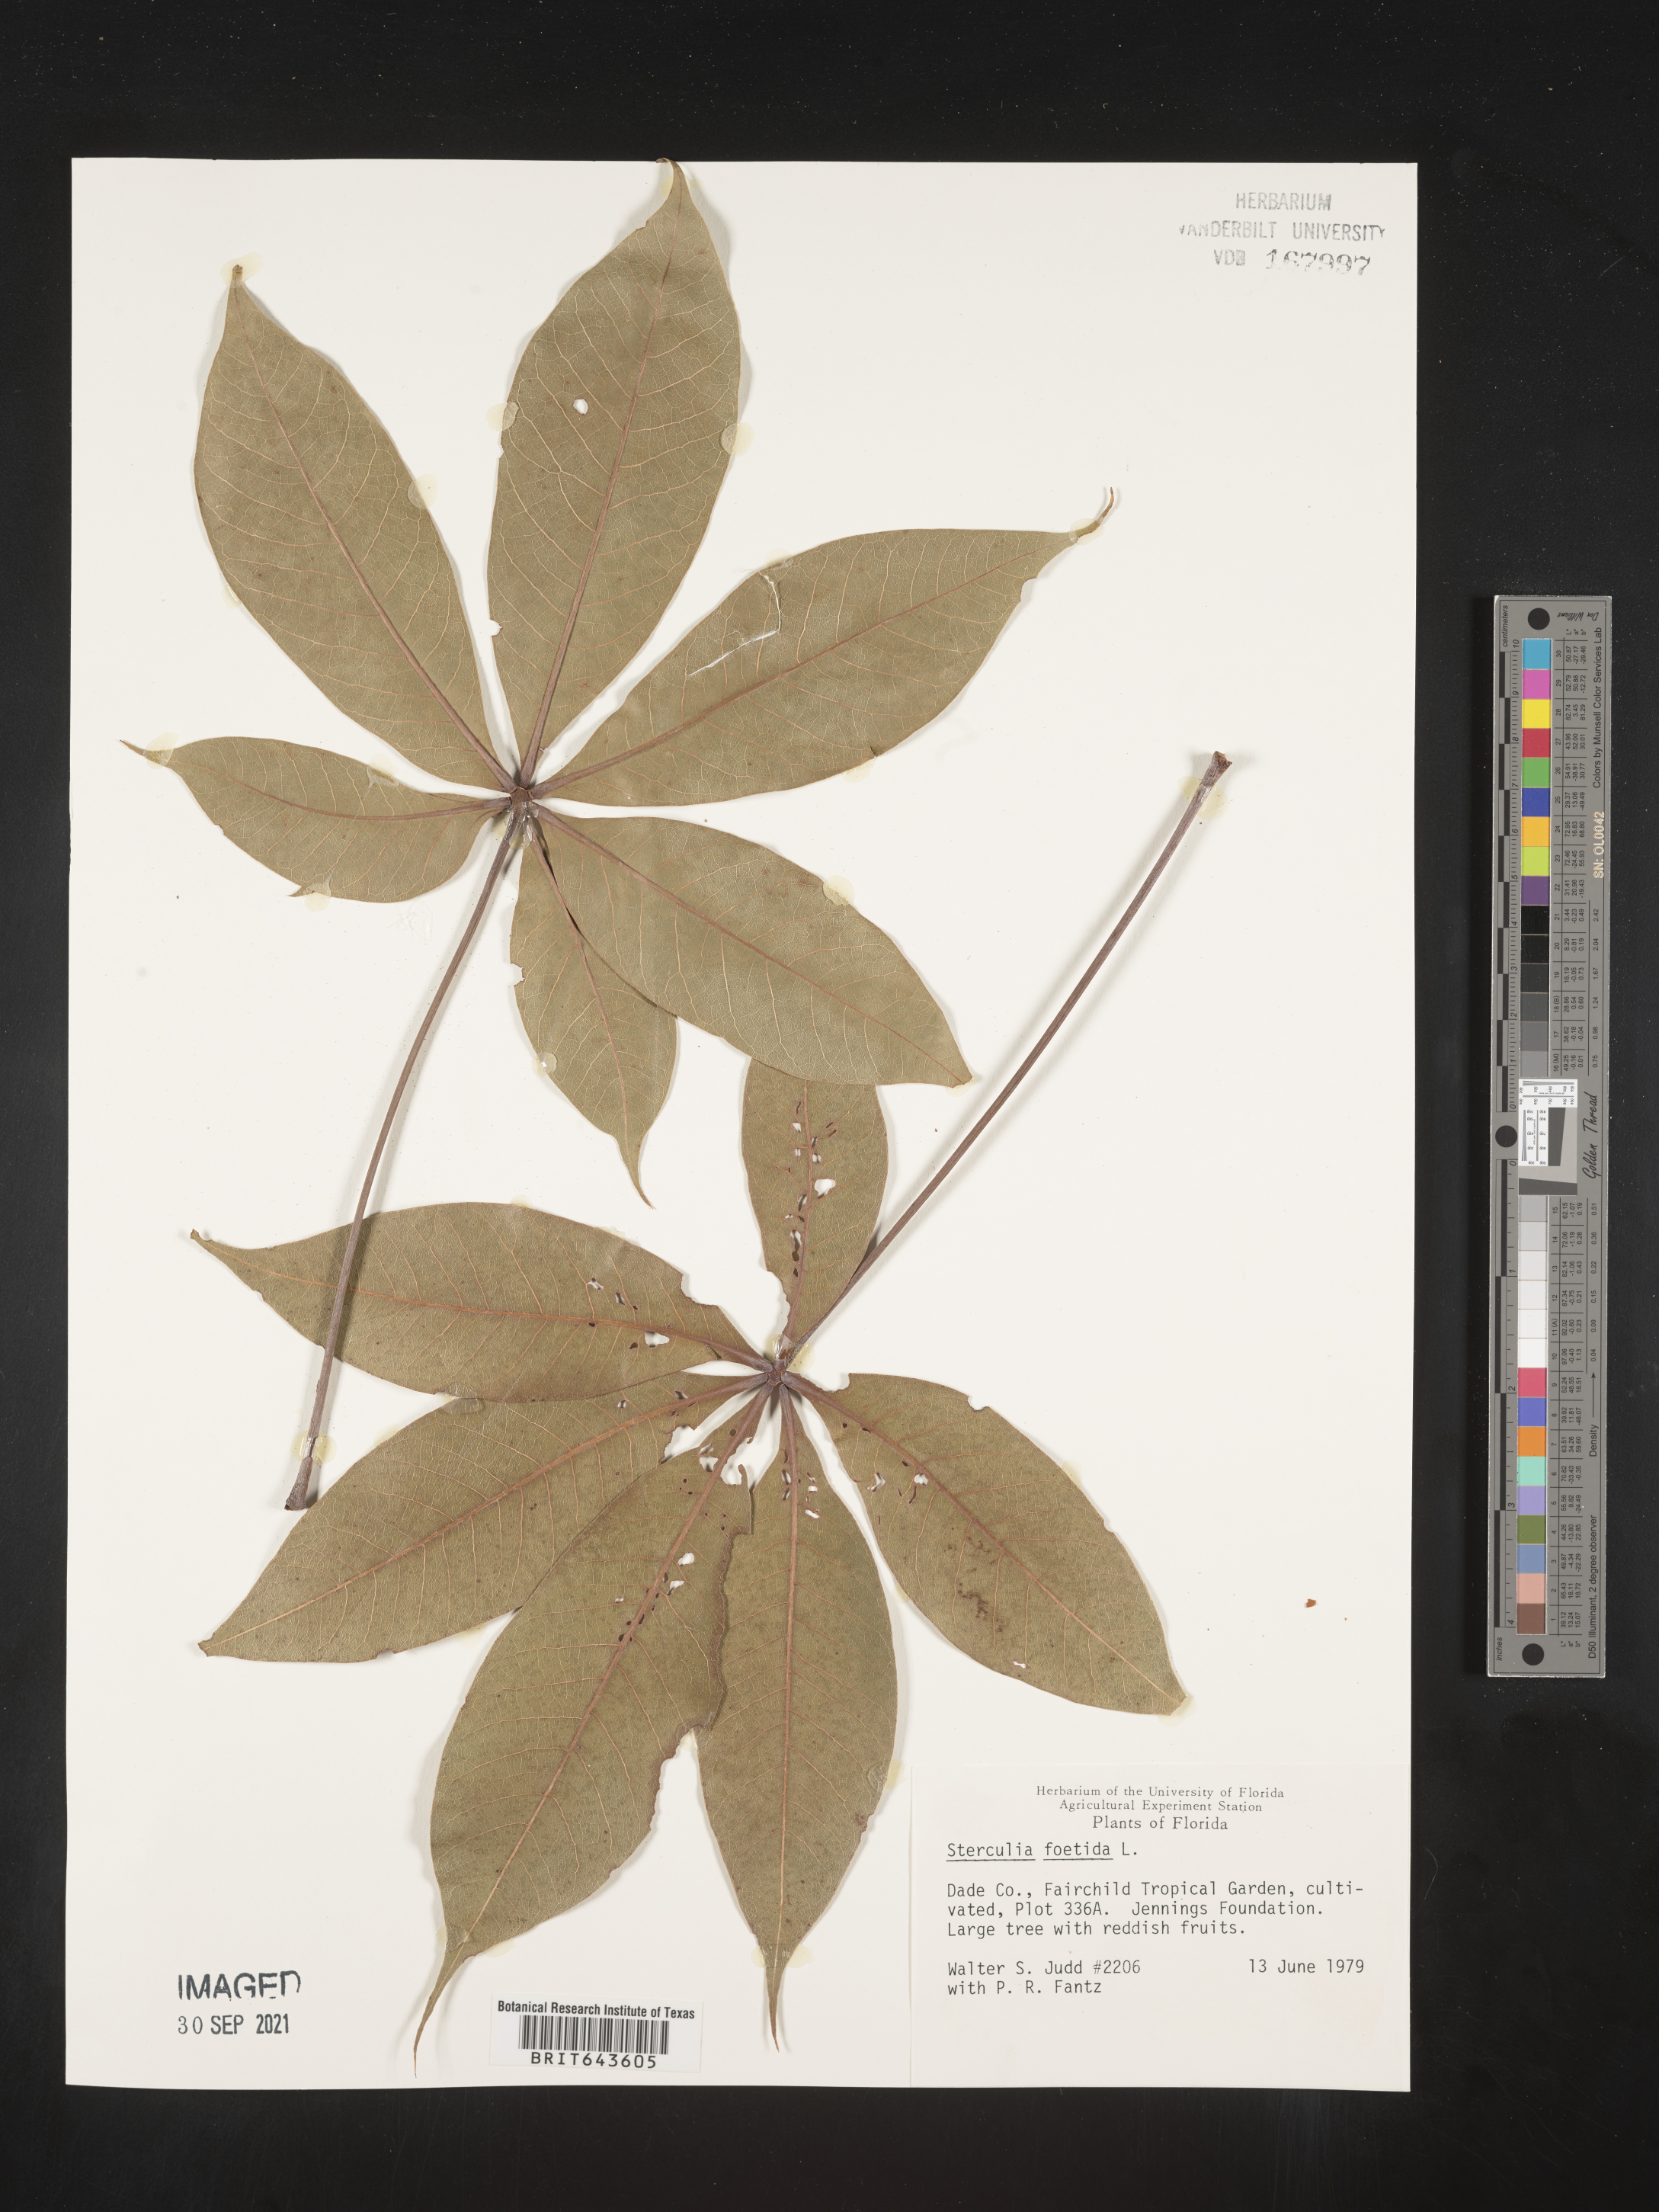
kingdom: Plantae
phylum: Tracheophyta
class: Magnoliopsida
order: Malvales
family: Malvaceae
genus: Sterculia
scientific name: Sterculia
